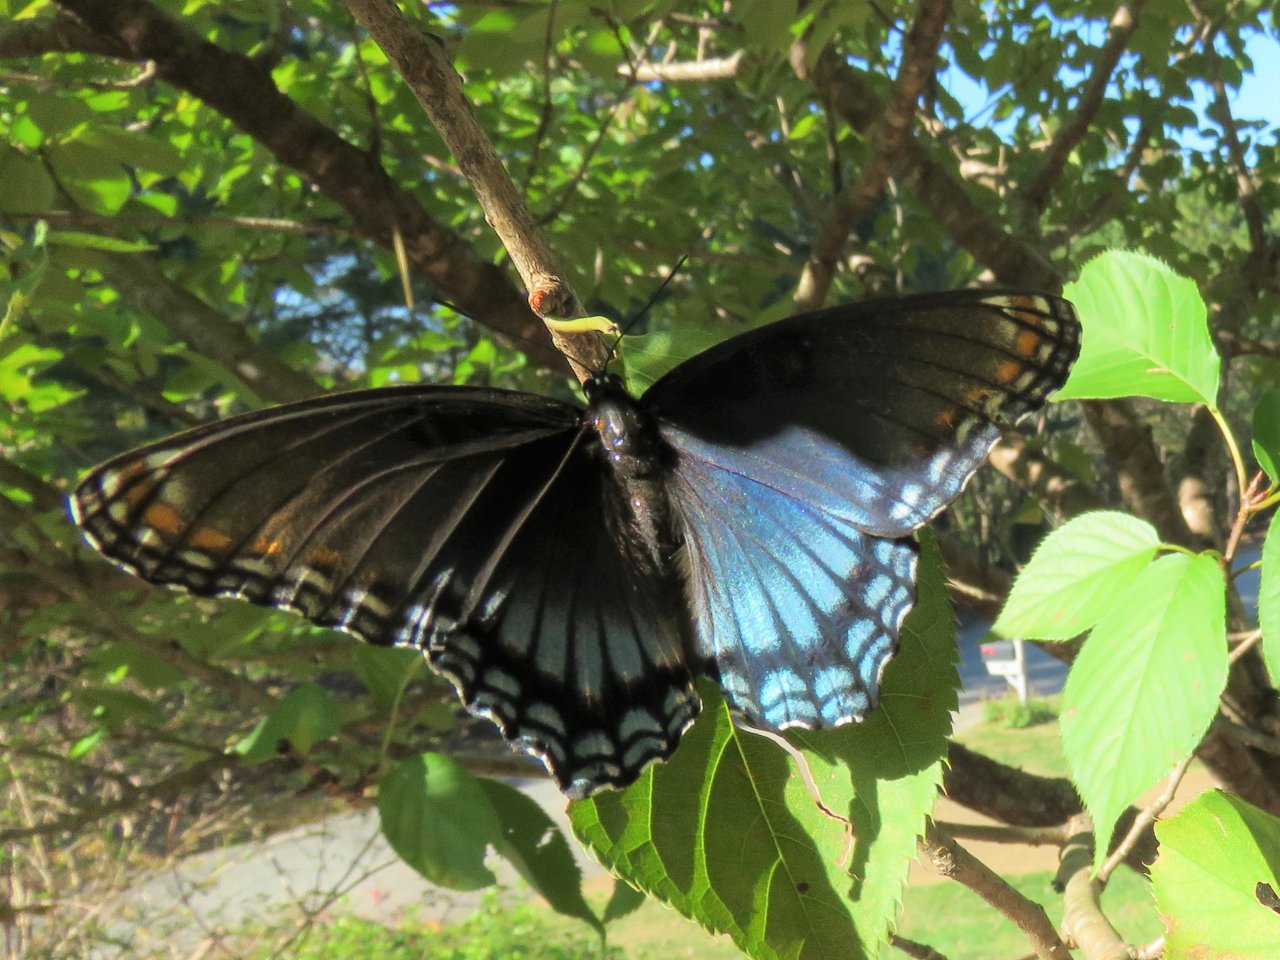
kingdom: Animalia
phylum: Arthropoda
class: Insecta
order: Lepidoptera
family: Nymphalidae
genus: Limenitis
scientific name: Limenitis astyanax
